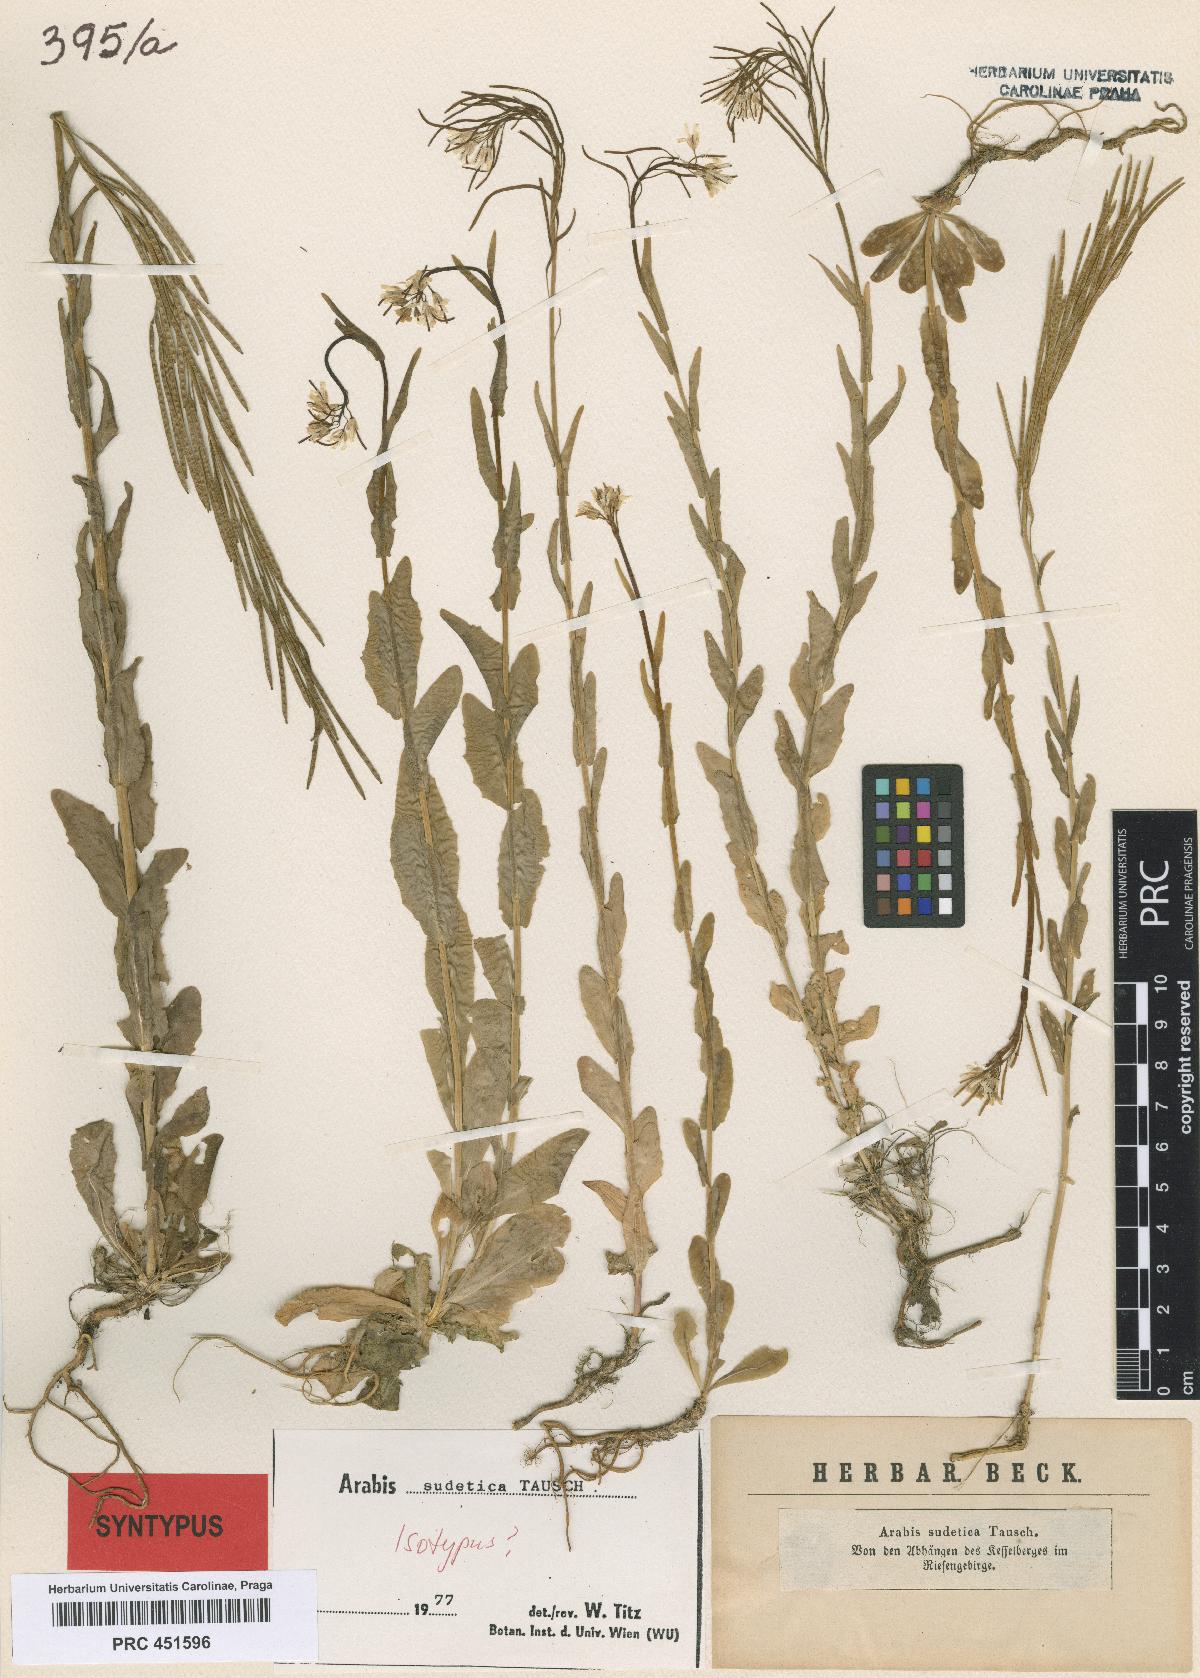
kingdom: Plantae
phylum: Tracheophyta
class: Magnoliopsida
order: Brassicales
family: Brassicaceae
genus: Arabis
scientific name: Arabis sudetica
